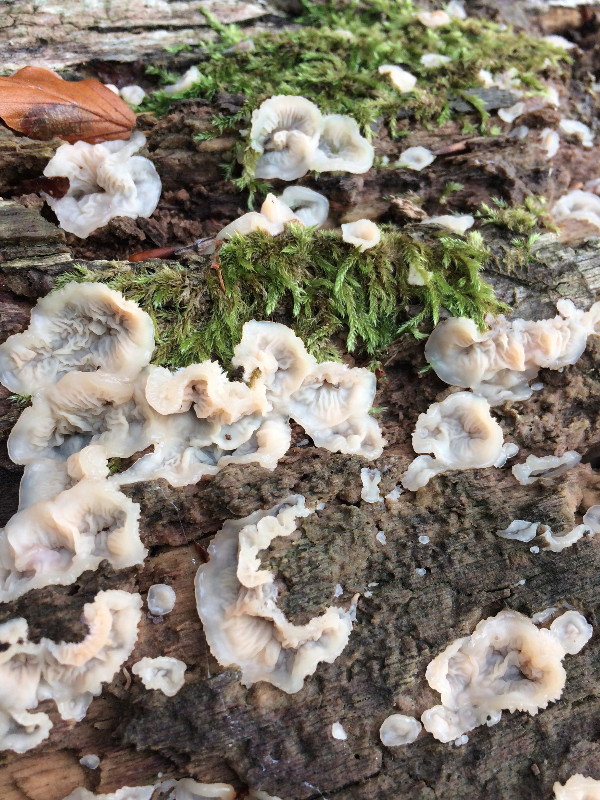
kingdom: Fungi
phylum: Basidiomycota
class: Agaricomycetes
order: Polyporales
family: Meruliaceae
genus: Phlebia
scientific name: Phlebia tremellosa
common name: bævrende åresvamp
